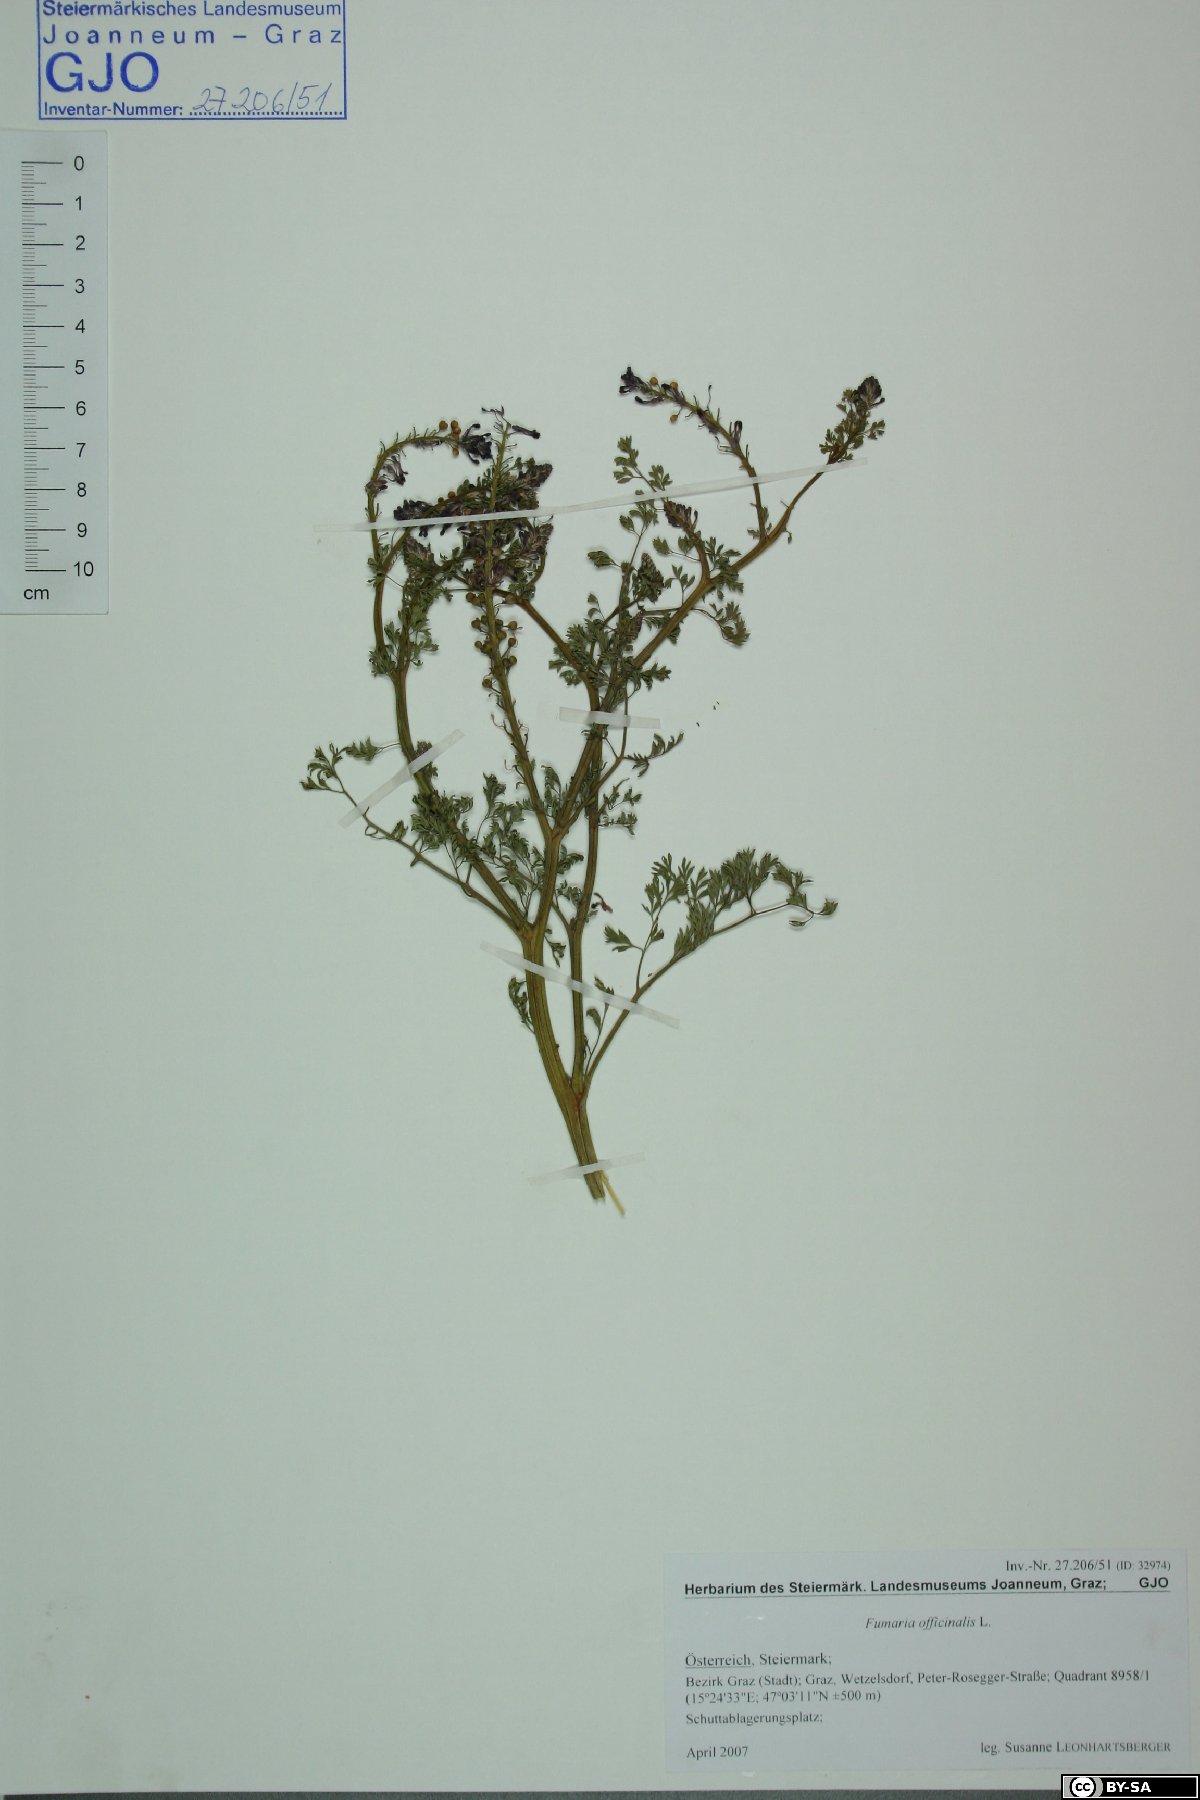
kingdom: Plantae
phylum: Tracheophyta
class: Magnoliopsida
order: Ranunculales
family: Papaveraceae
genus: Fumaria
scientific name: Fumaria officinalis
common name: Common fumitory
